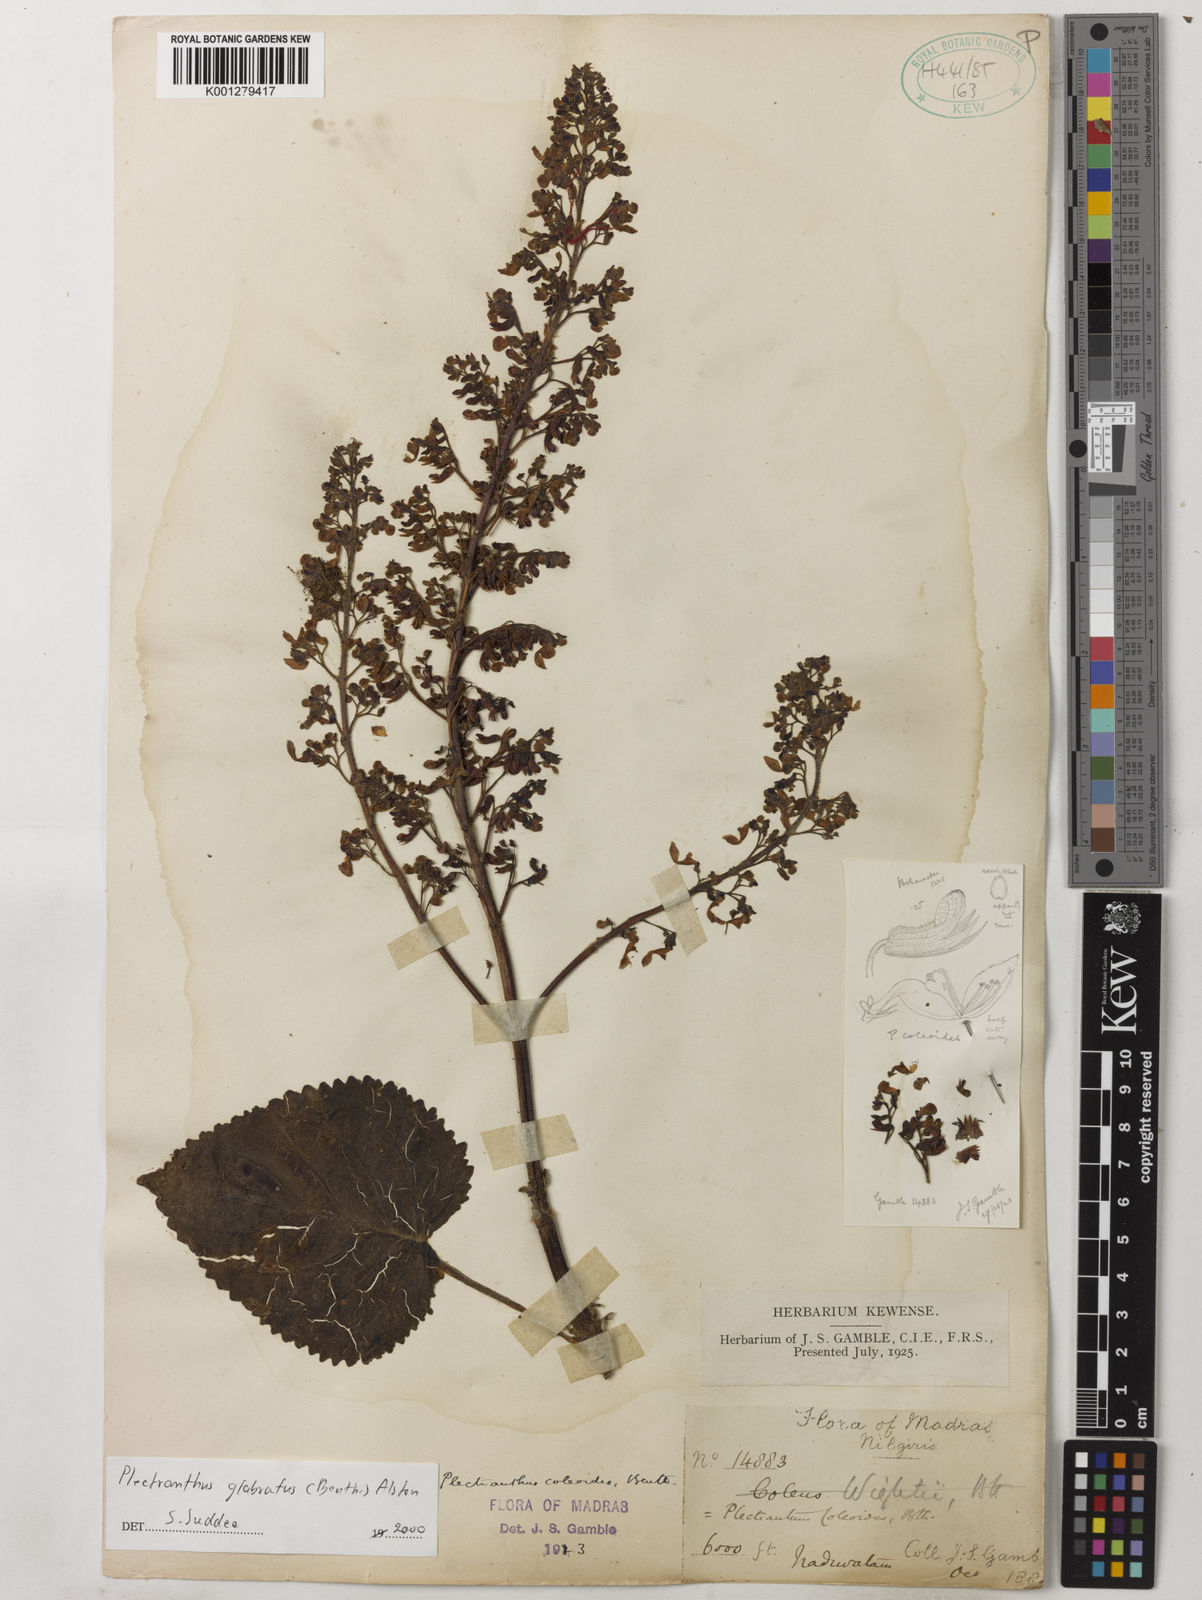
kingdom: Plantae
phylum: Tracheophyta
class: Magnoliopsida
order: Lamiales
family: Lamiaceae
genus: Coleus
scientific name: Coleus paniculatus
